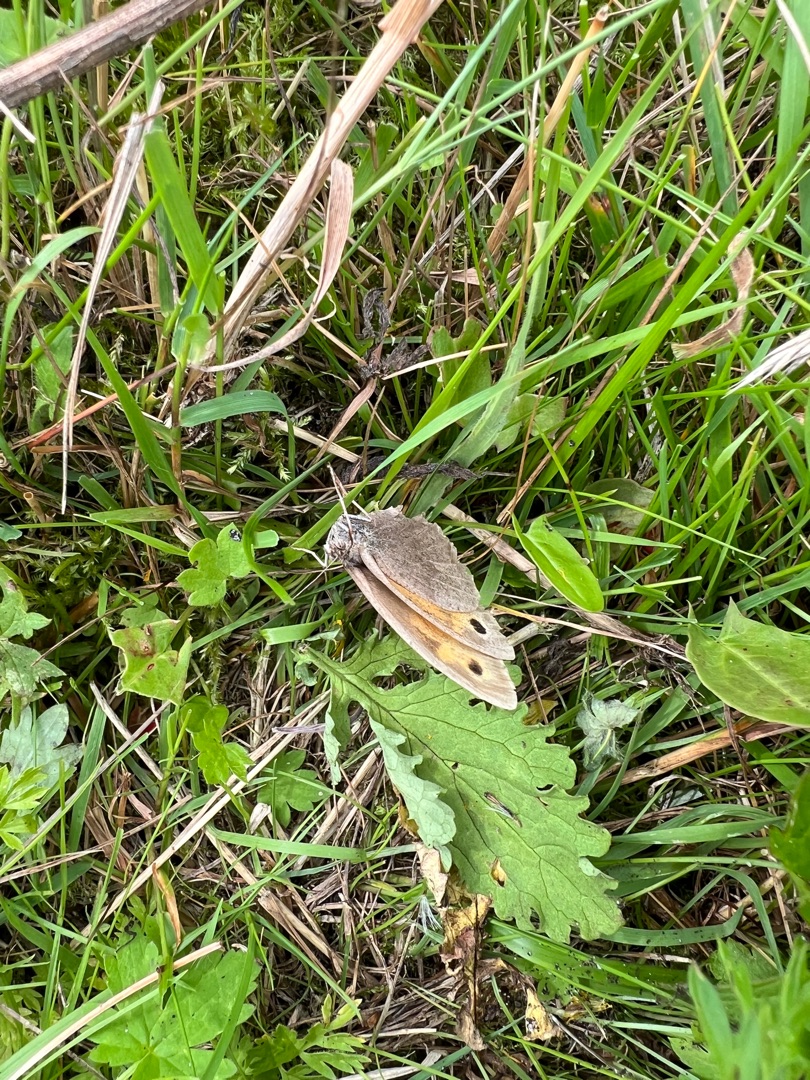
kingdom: Animalia
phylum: Arthropoda
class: Insecta
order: Lepidoptera
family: Nymphalidae
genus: Maniola
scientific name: Maniola jurtina
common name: Græsrandøje
